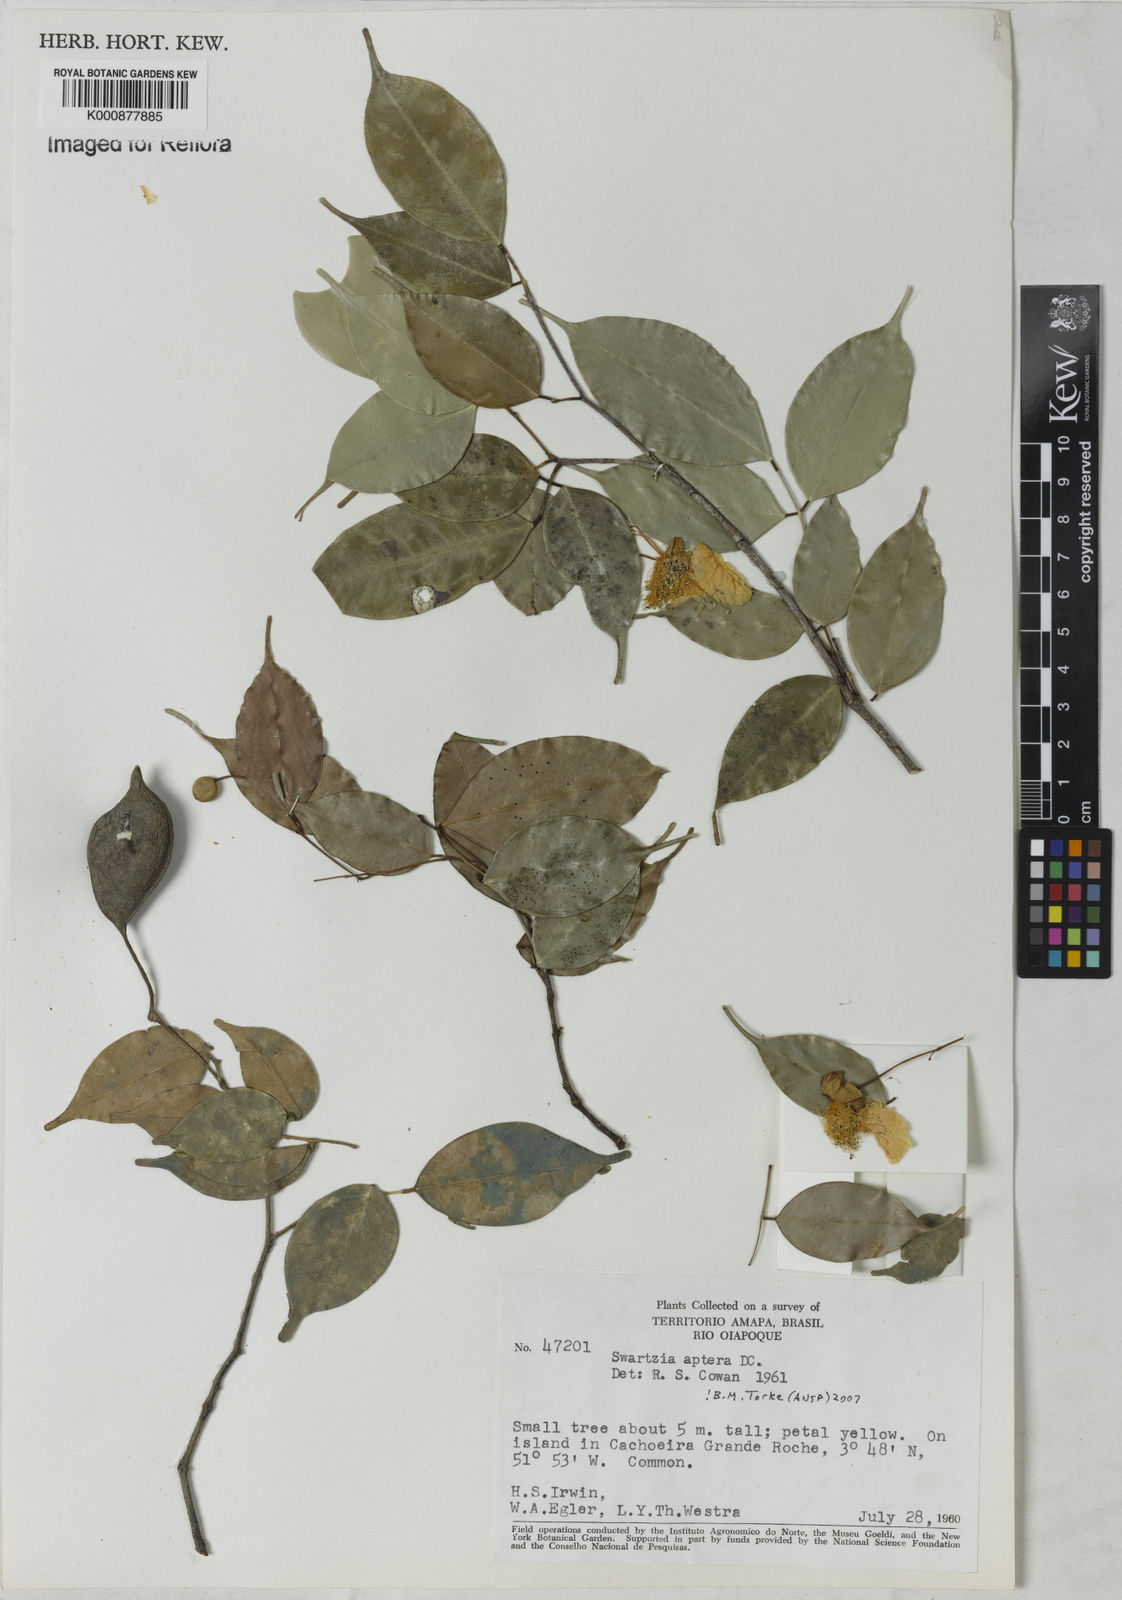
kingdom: Plantae
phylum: Tracheophyta
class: Magnoliopsida
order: Fabales
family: Fabaceae
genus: Swartzia
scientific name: Swartzia aptera
